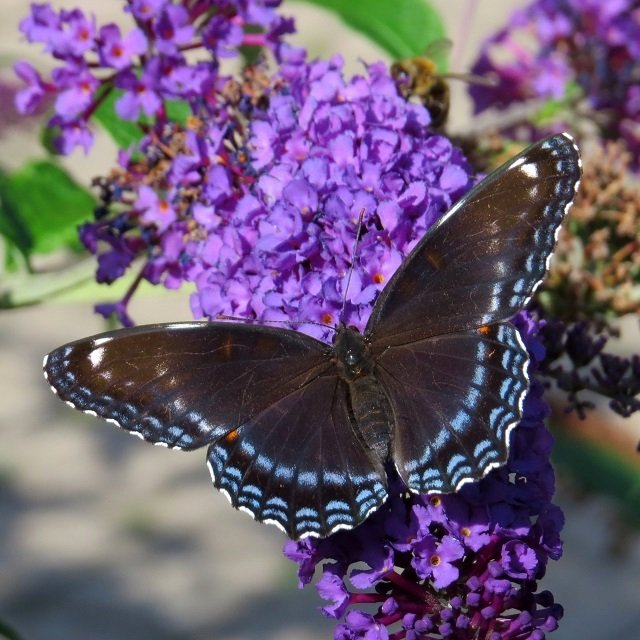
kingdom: Animalia
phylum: Arthropoda
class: Insecta
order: Lepidoptera
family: Nymphalidae
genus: Limenitis
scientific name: Limenitis astyanax
